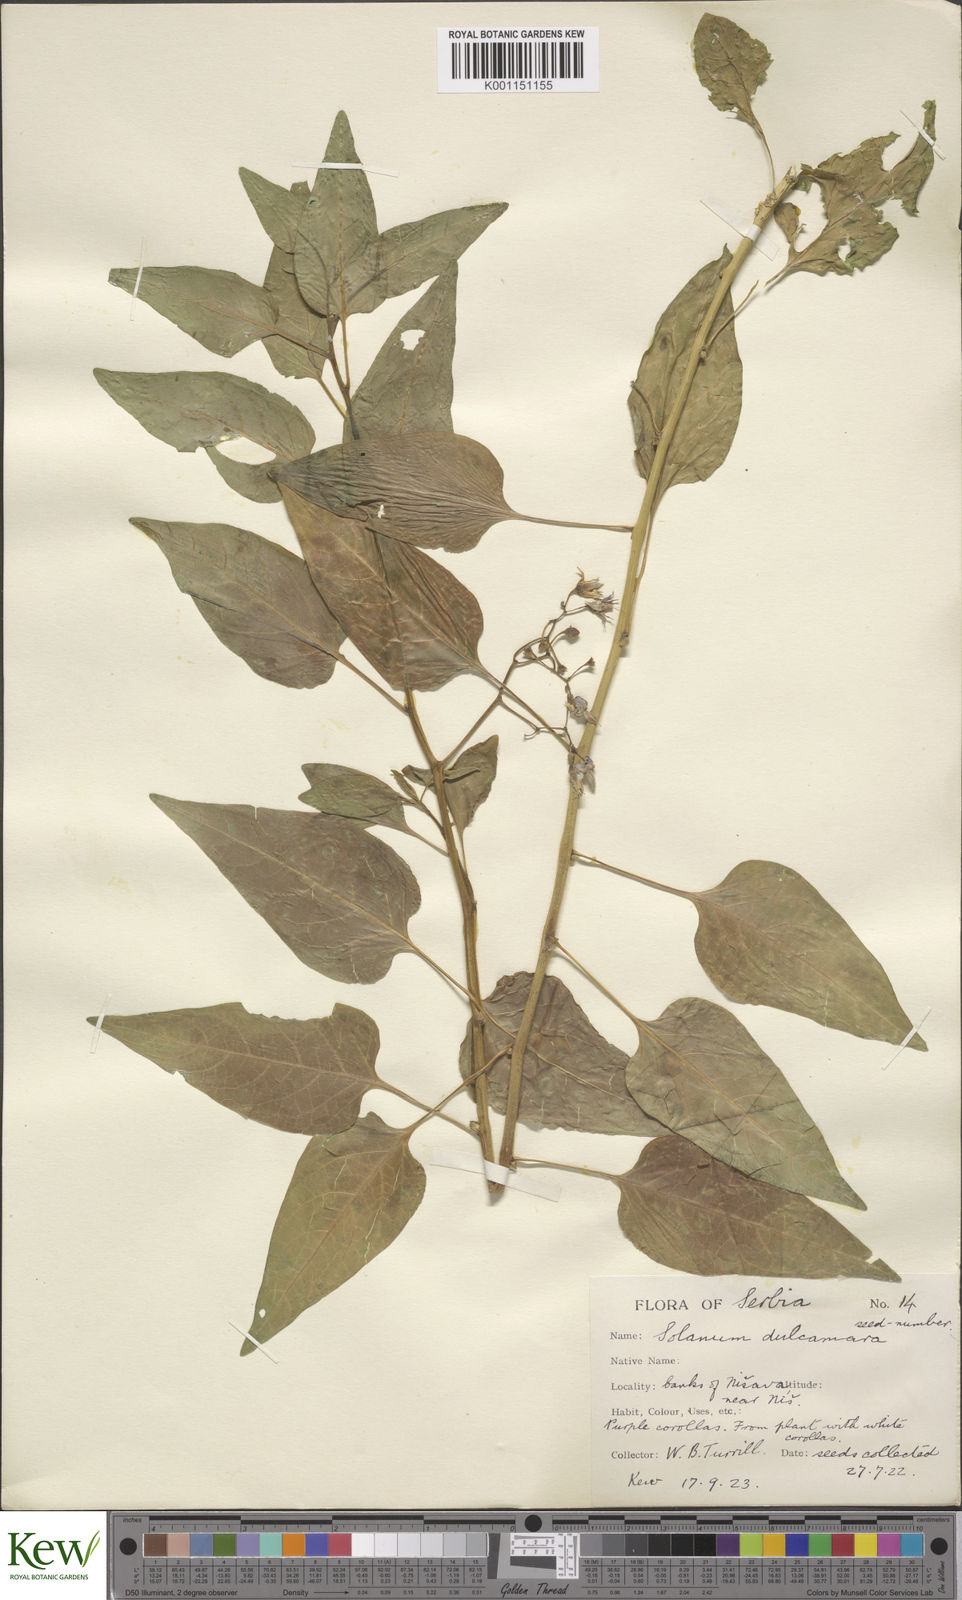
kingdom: Plantae
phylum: Tracheophyta
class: Magnoliopsida
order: Solanales
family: Solanaceae
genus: Solanum
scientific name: Solanum dulcamara
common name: Climbing nightshade
